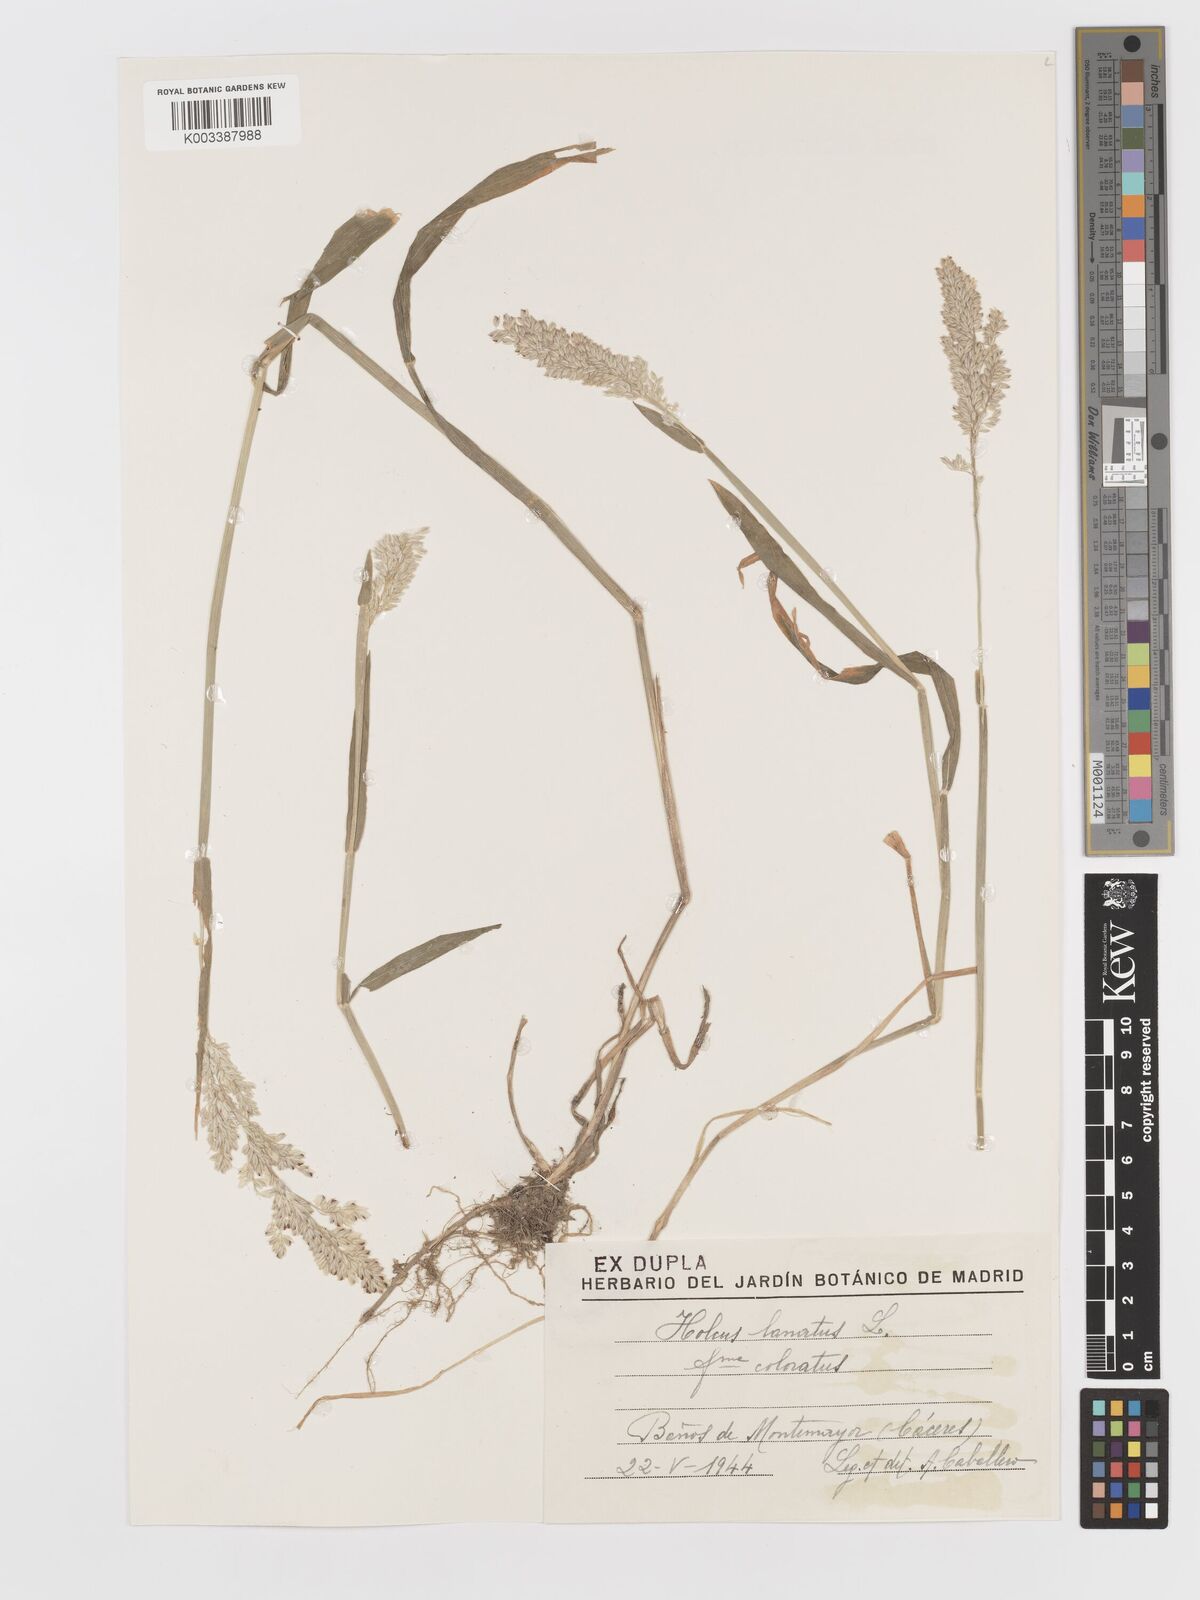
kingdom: Plantae
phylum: Tracheophyta
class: Liliopsida
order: Poales
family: Poaceae
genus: Holcus
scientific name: Holcus lanatus
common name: Yorkshire-fog
